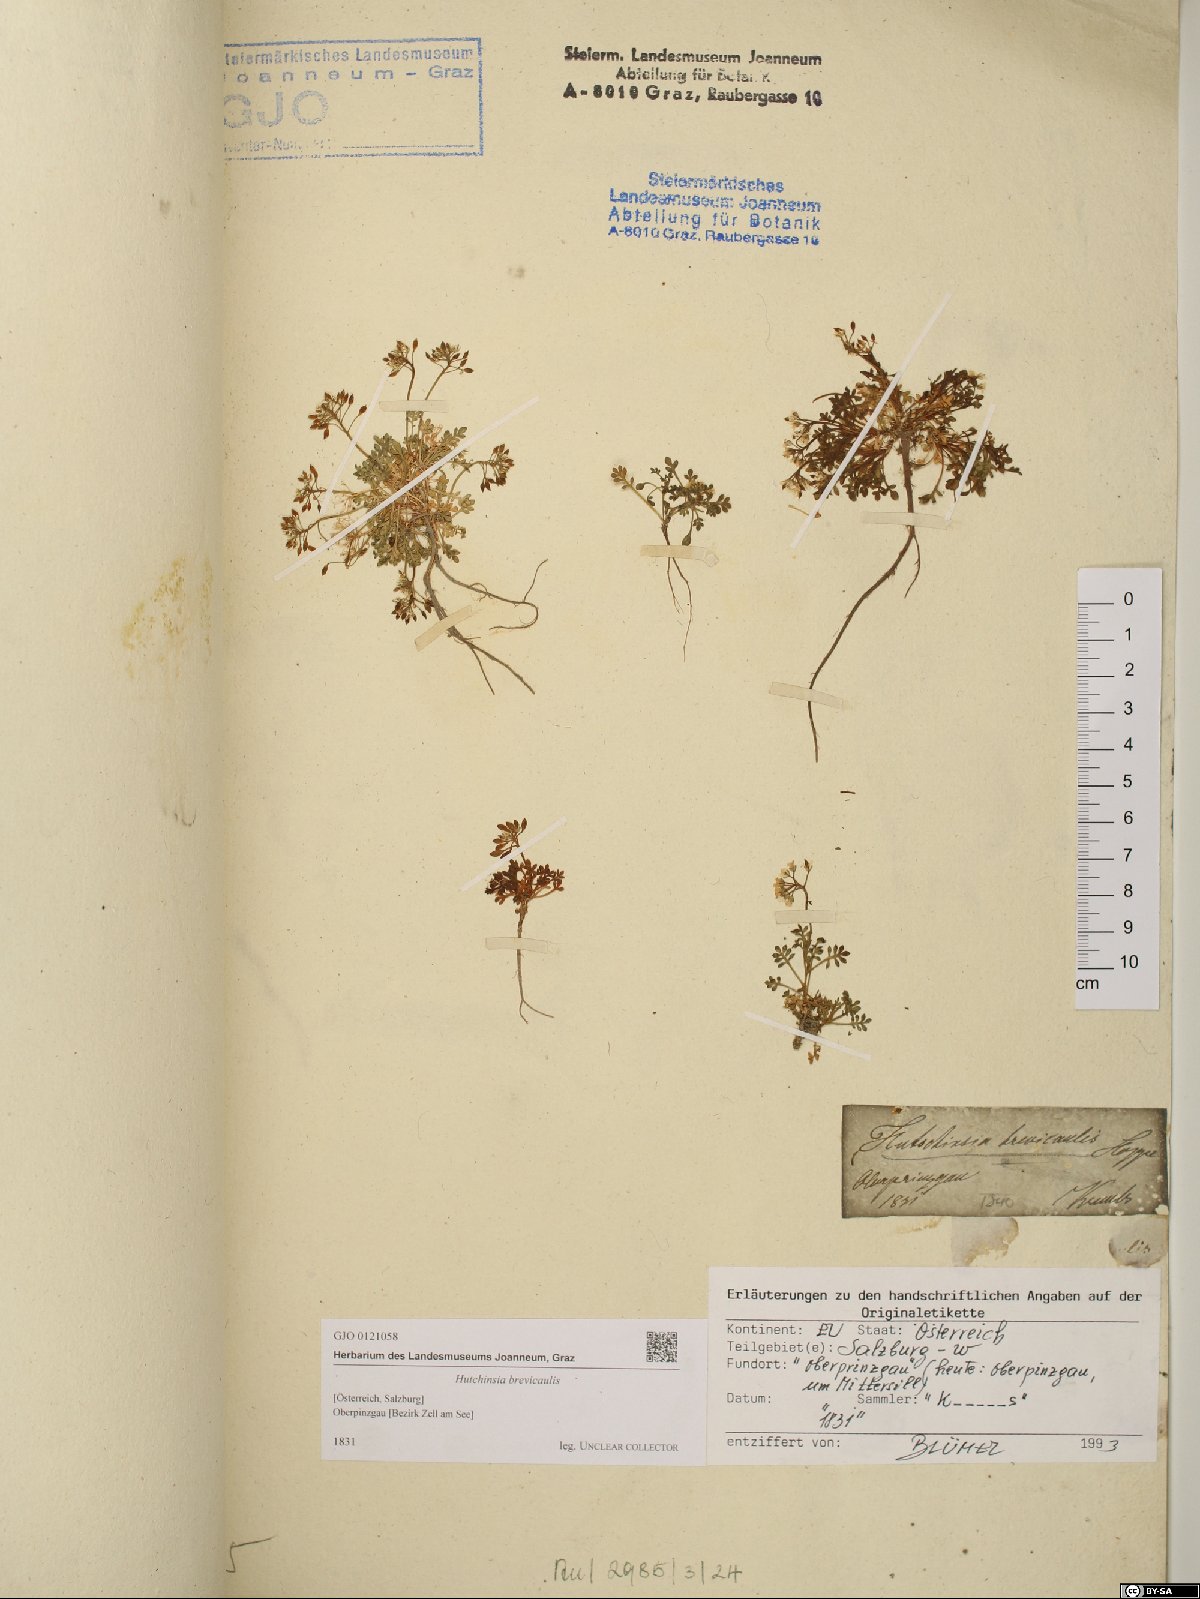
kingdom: Plantae
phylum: Tracheophyta
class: Magnoliopsida
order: Brassicales
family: Brassicaceae
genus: Hornungia
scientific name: Hornungia alpina
